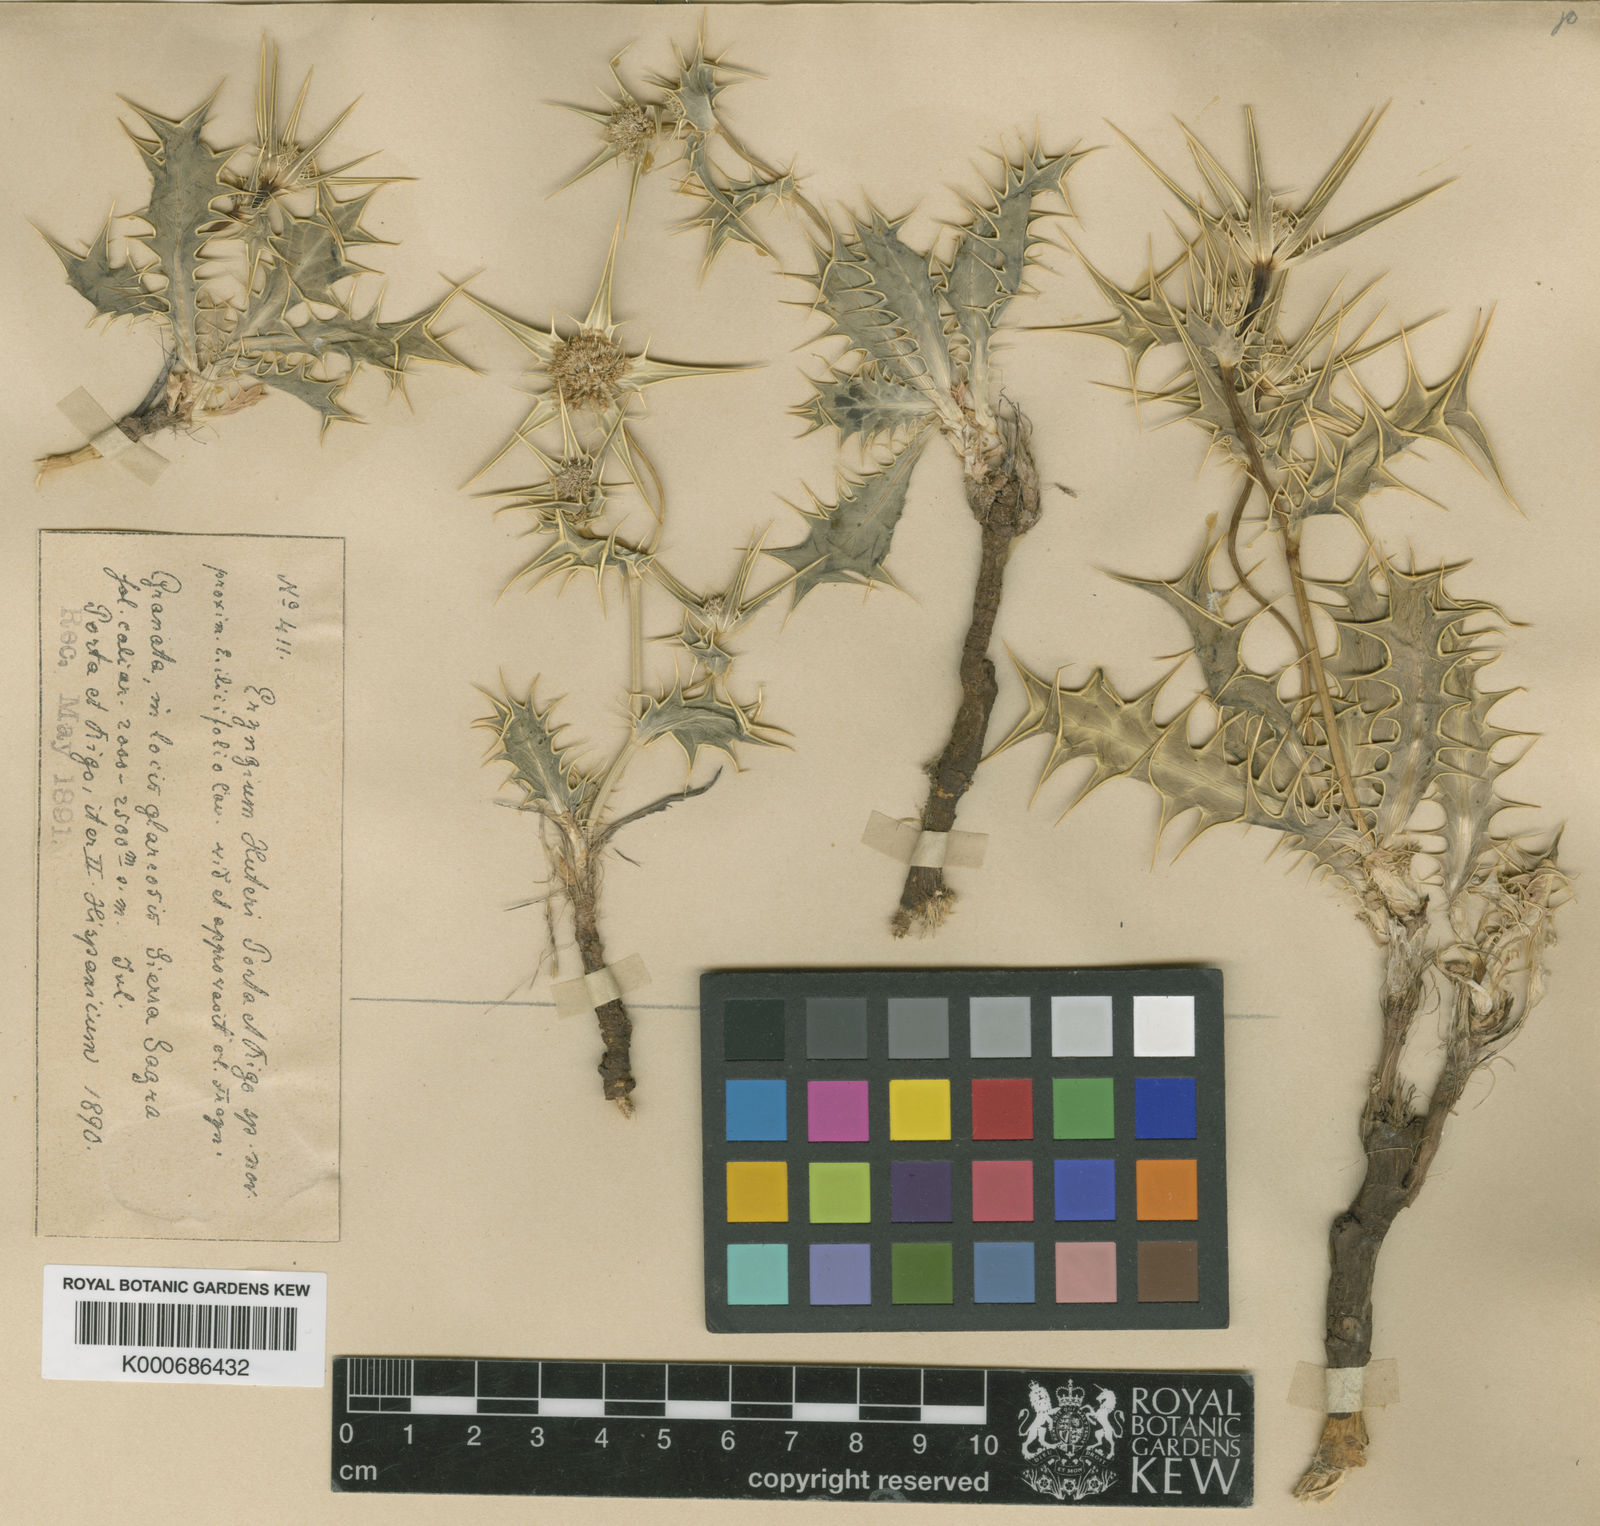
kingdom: Plantae
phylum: Tracheophyta
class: Magnoliopsida
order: Apiales
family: Apiaceae
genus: Eryngium
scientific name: Eryngium aquifolium
